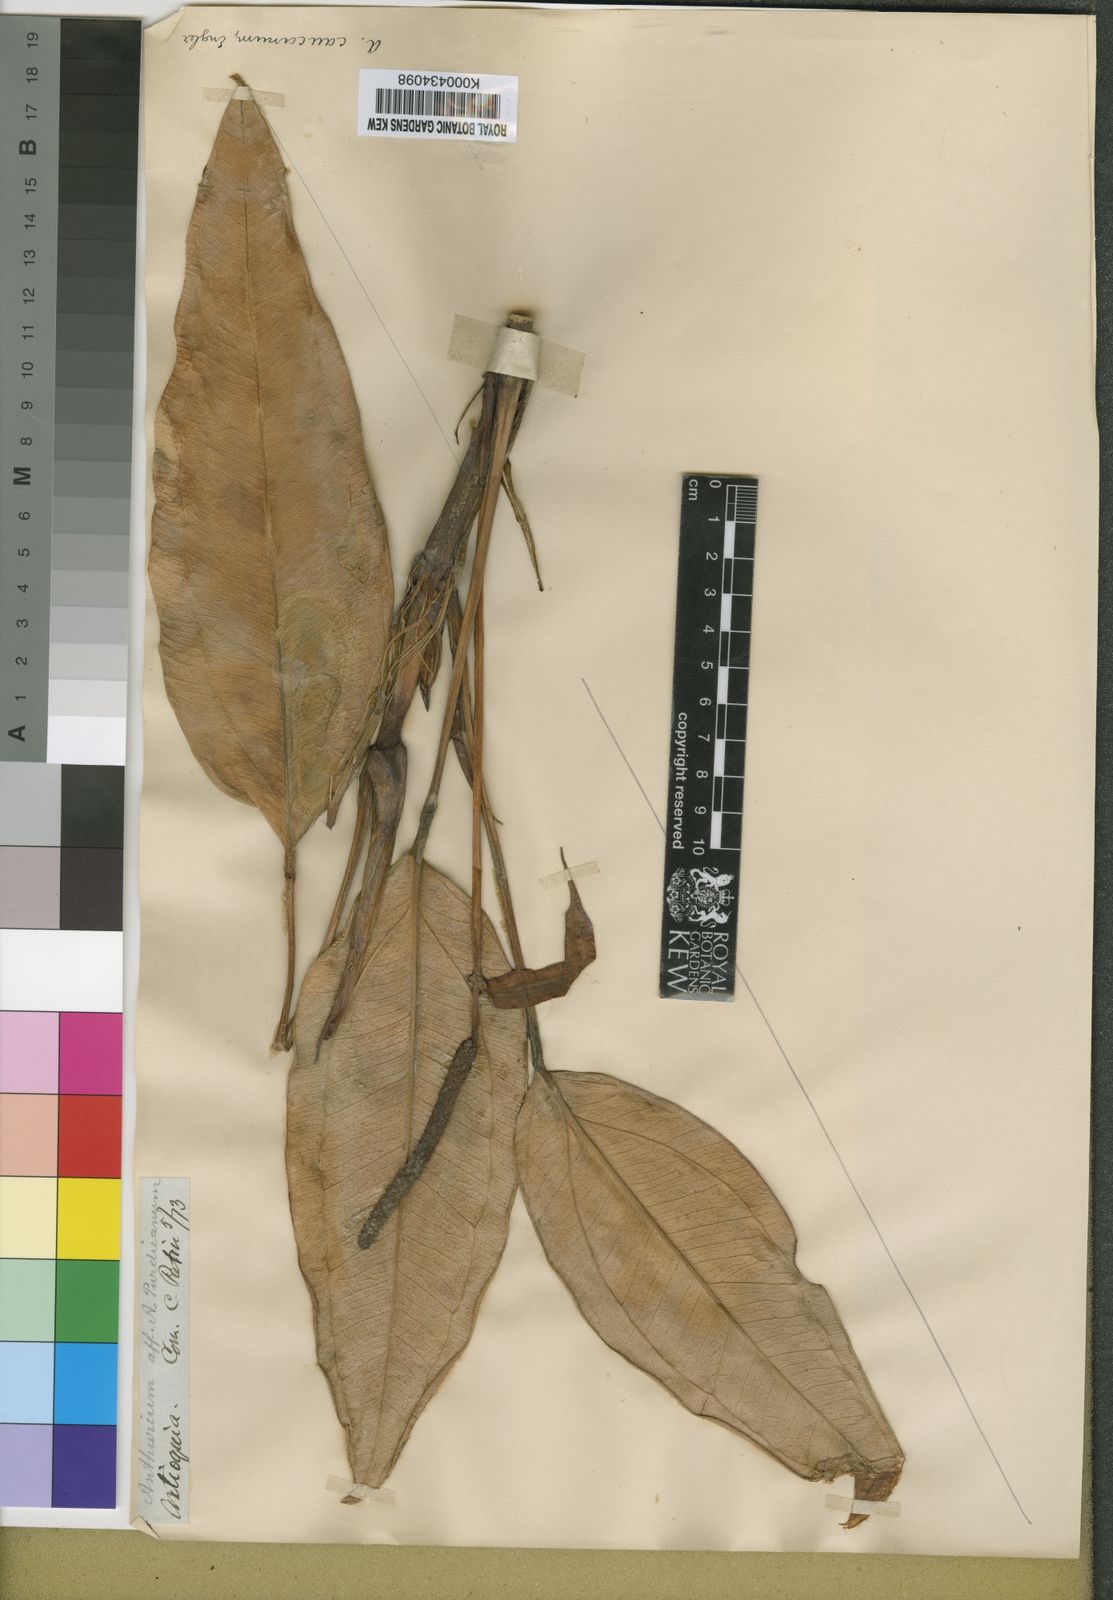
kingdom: Plantae
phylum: Tracheophyta
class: Liliopsida
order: Alismatales
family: Araceae
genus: Anthurium
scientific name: Anthurium caucanum
